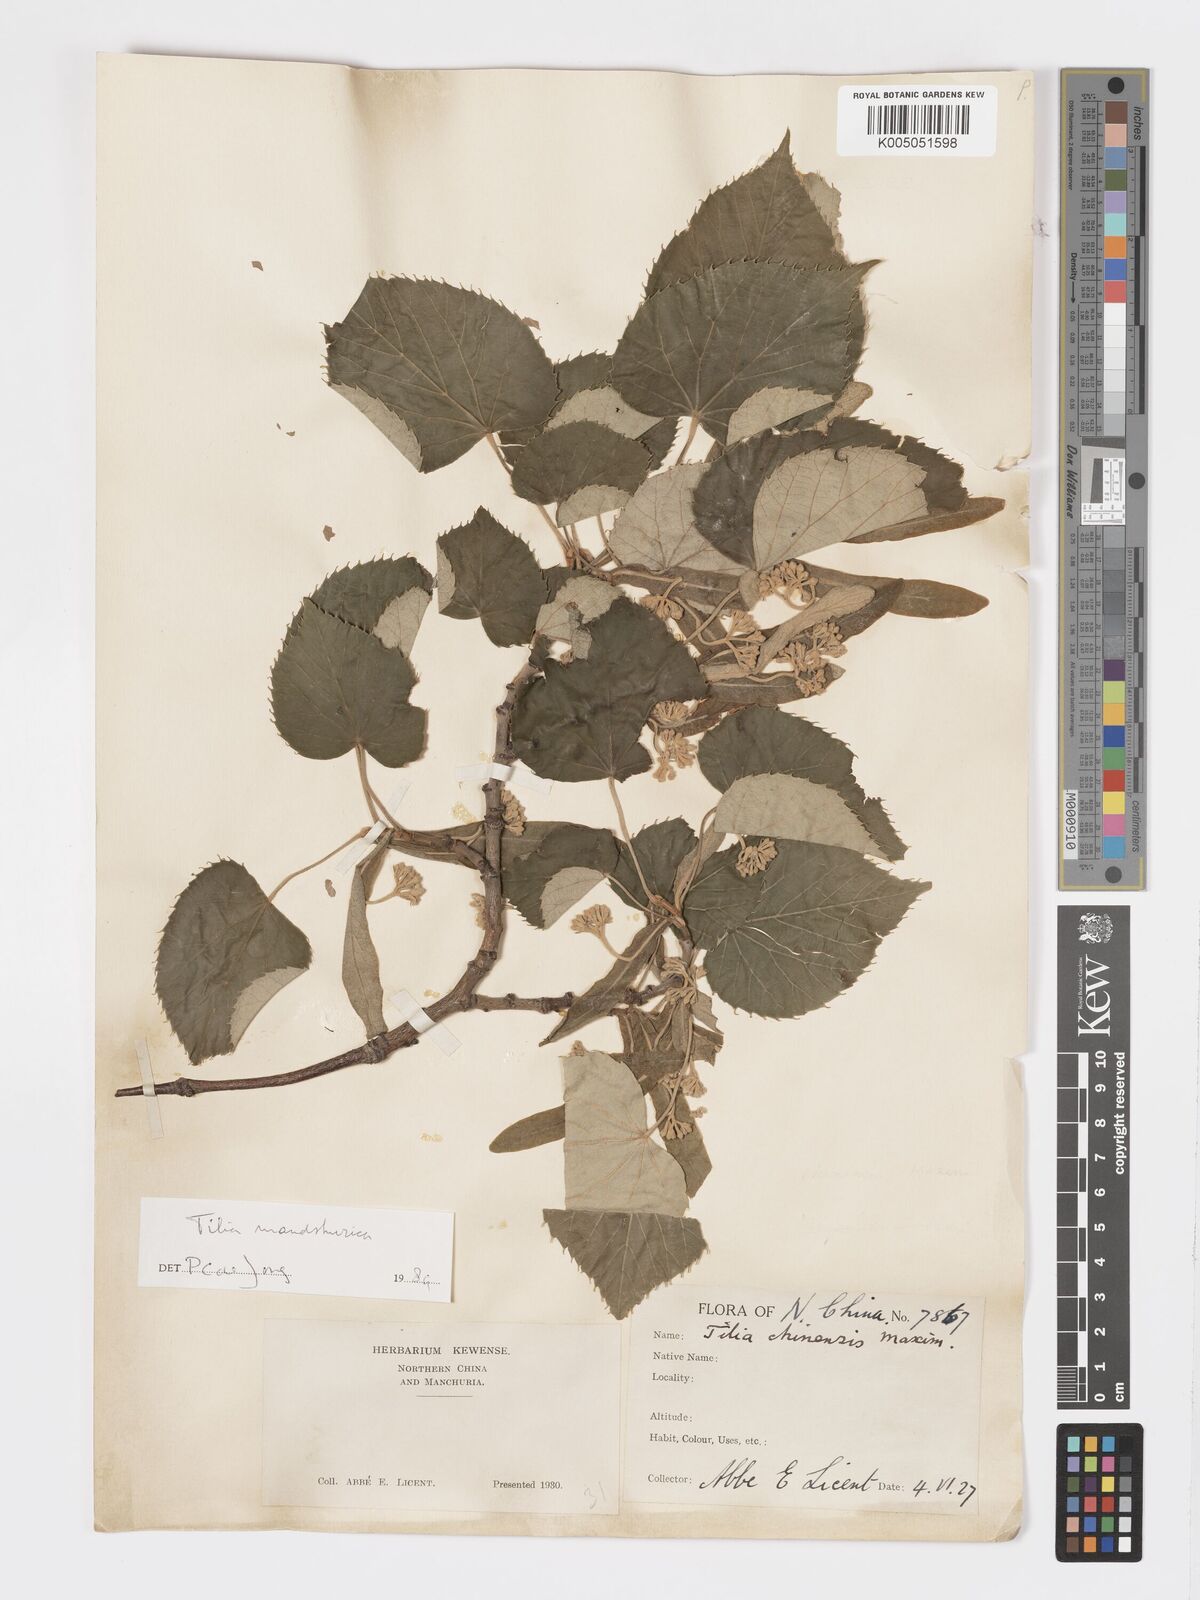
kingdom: Plantae
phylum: Tracheophyta
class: Magnoliopsida
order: Malvales
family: Malvaceae
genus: Tilia
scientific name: Tilia mandshurica
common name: Manchurian linden
